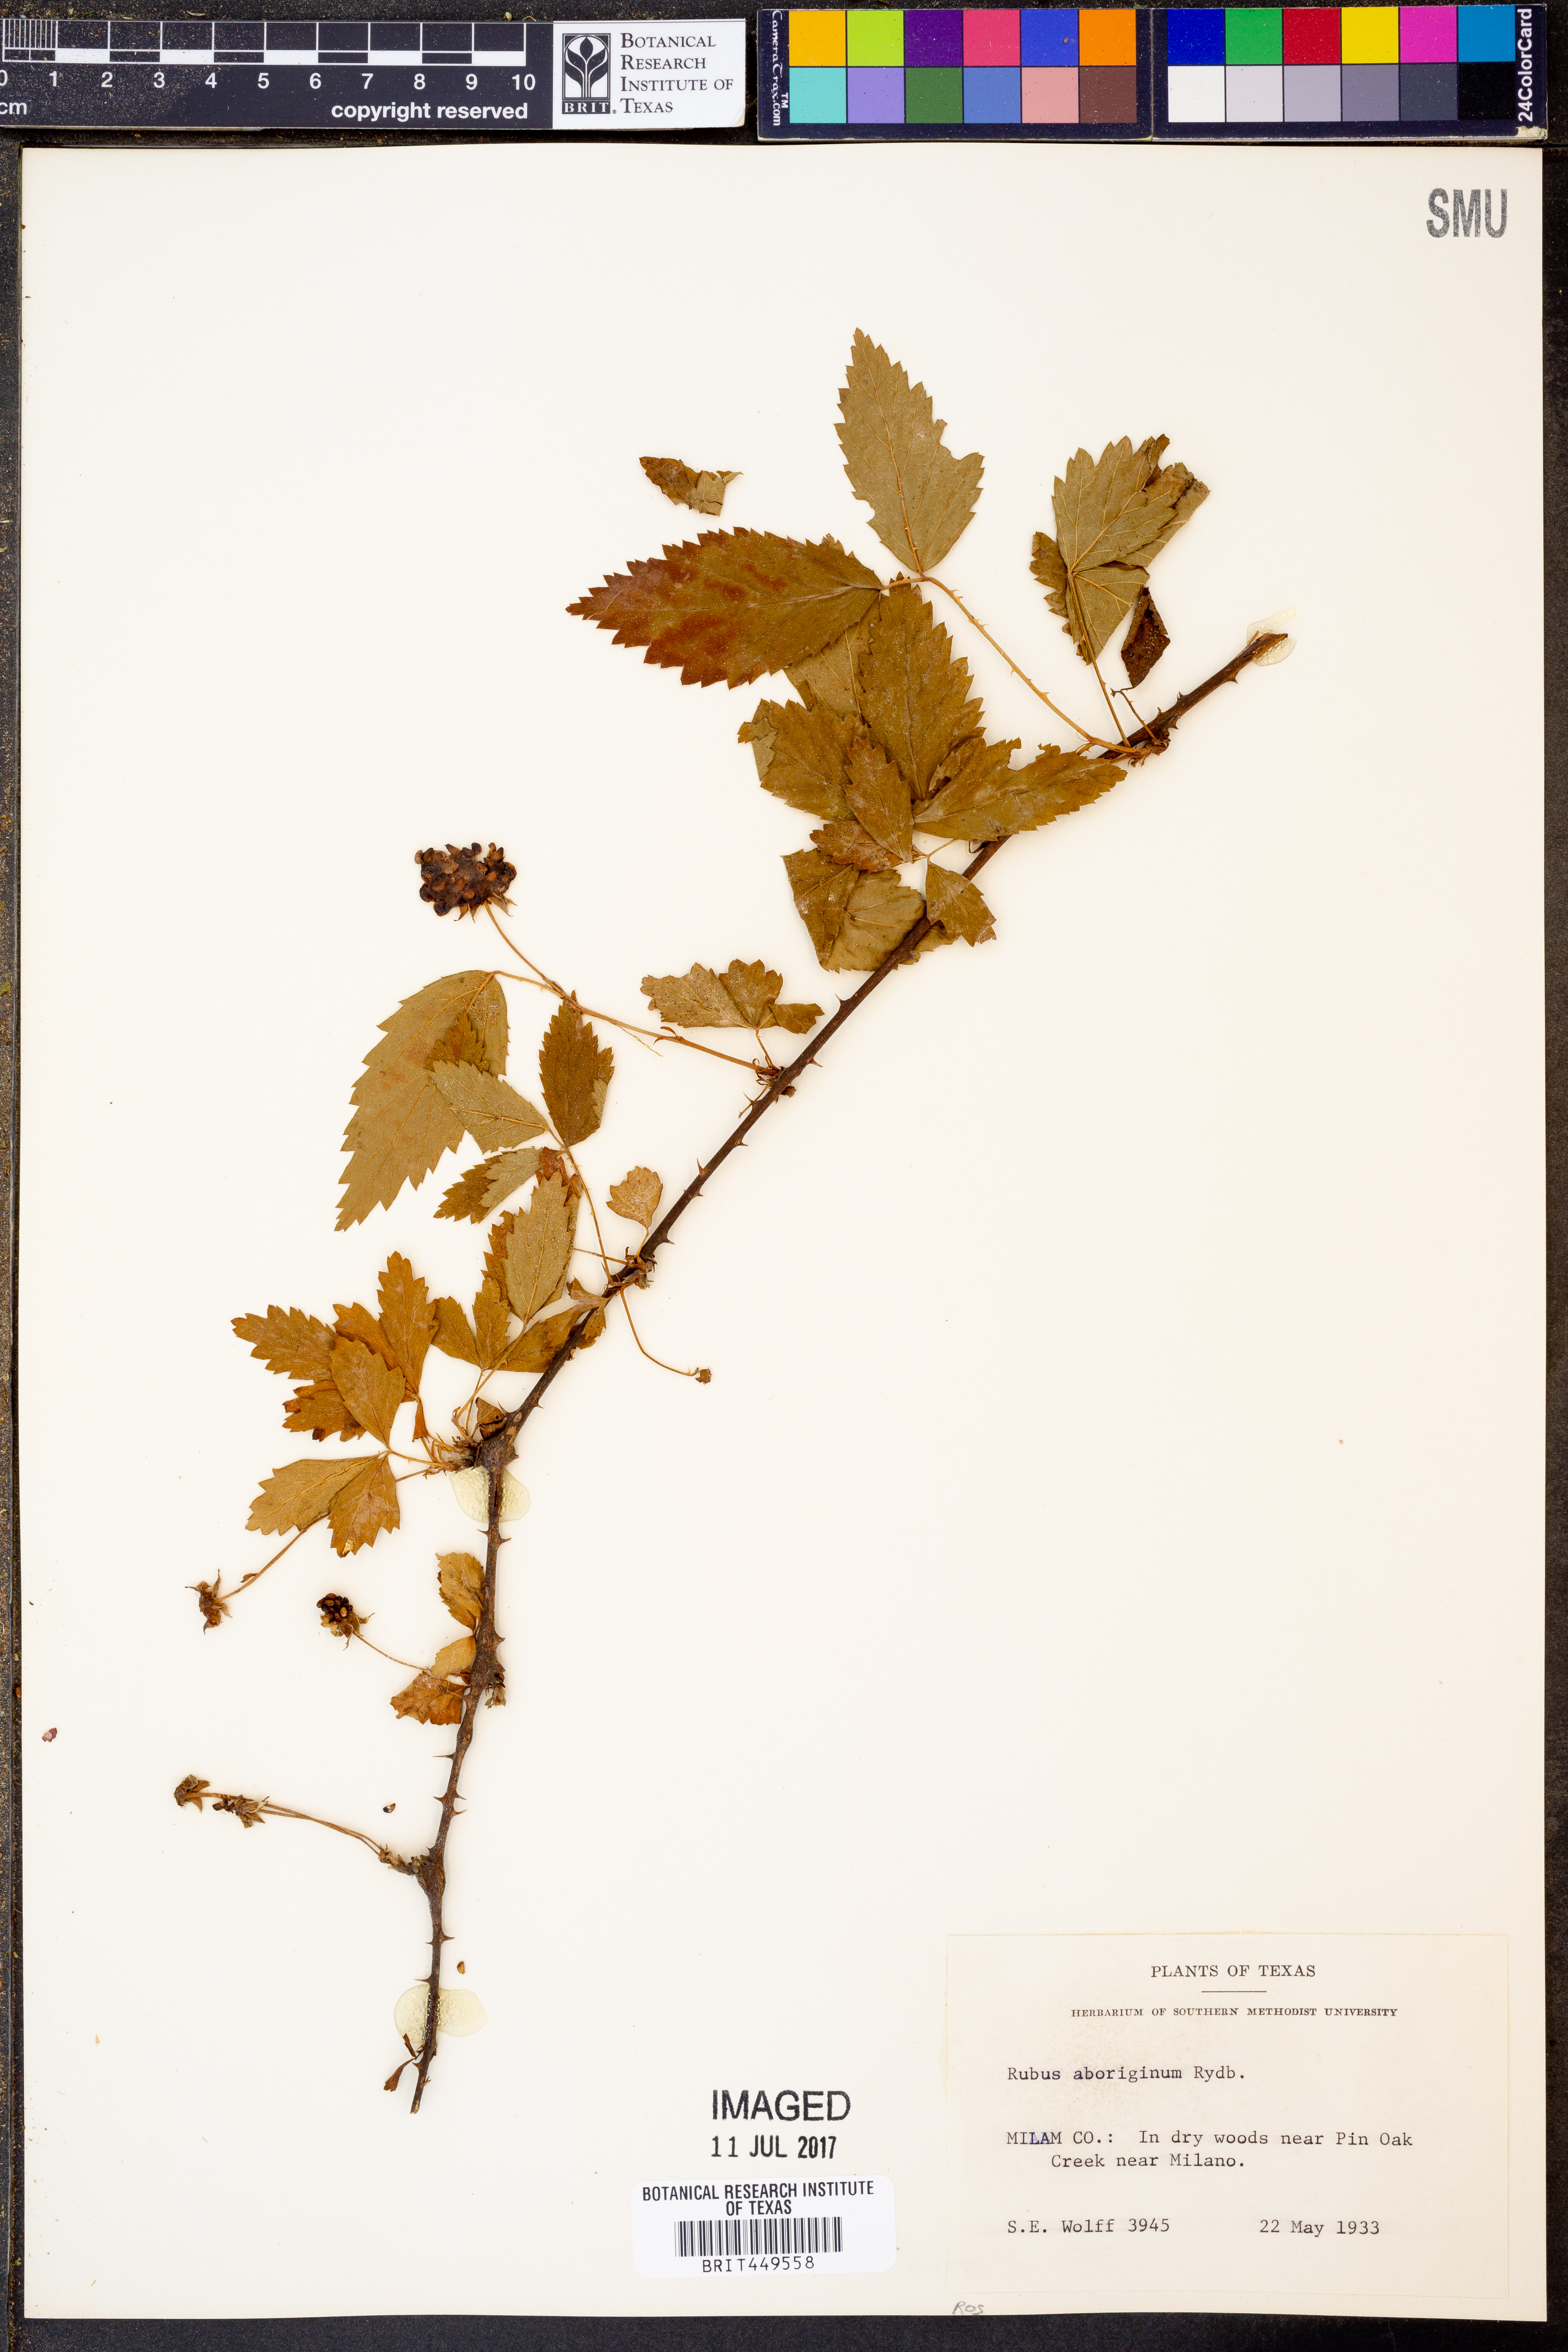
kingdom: Plantae
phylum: Tracheophyta
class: Magnoliopsida
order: Rosales
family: Rosaceae
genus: Rubus
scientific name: Rubus aboriginum
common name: Mayes dewberry
